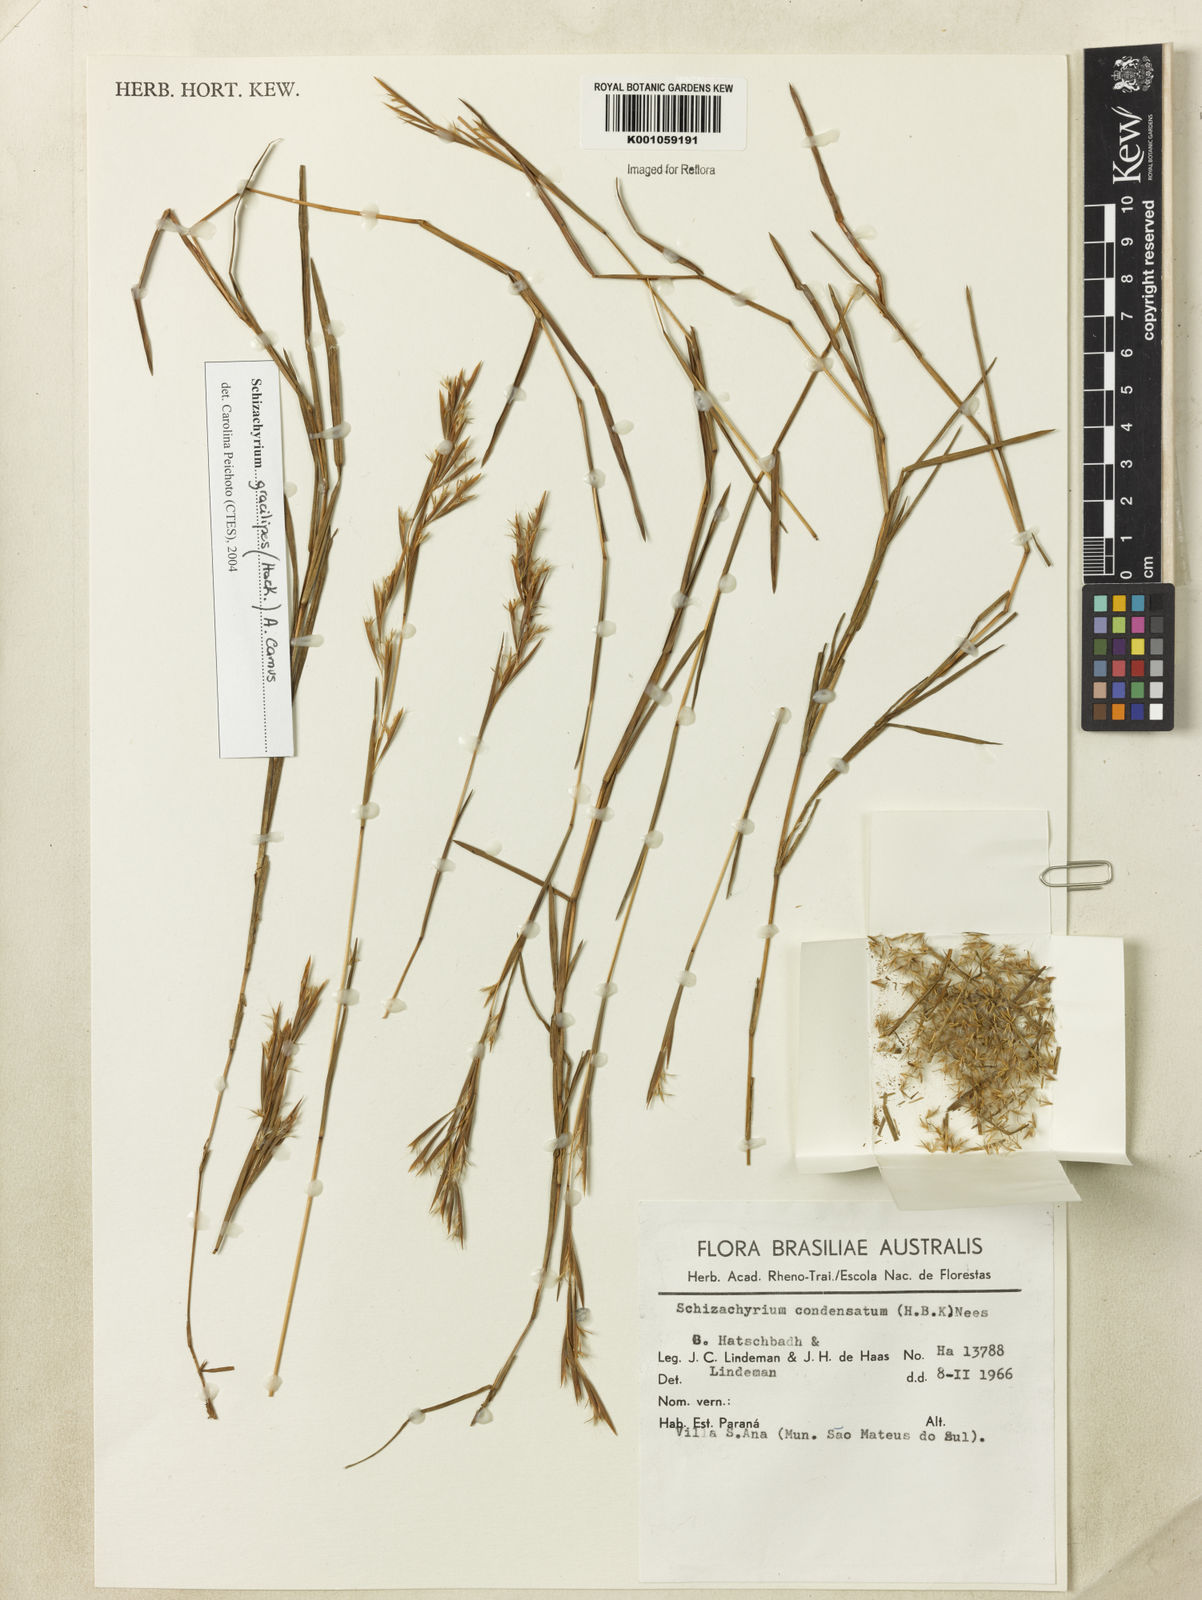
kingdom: Plantae
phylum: Tracheophyta
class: Liliopsida
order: Poales
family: Poaceae
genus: Schizachyrium
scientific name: Schizachyrium gracilipes
